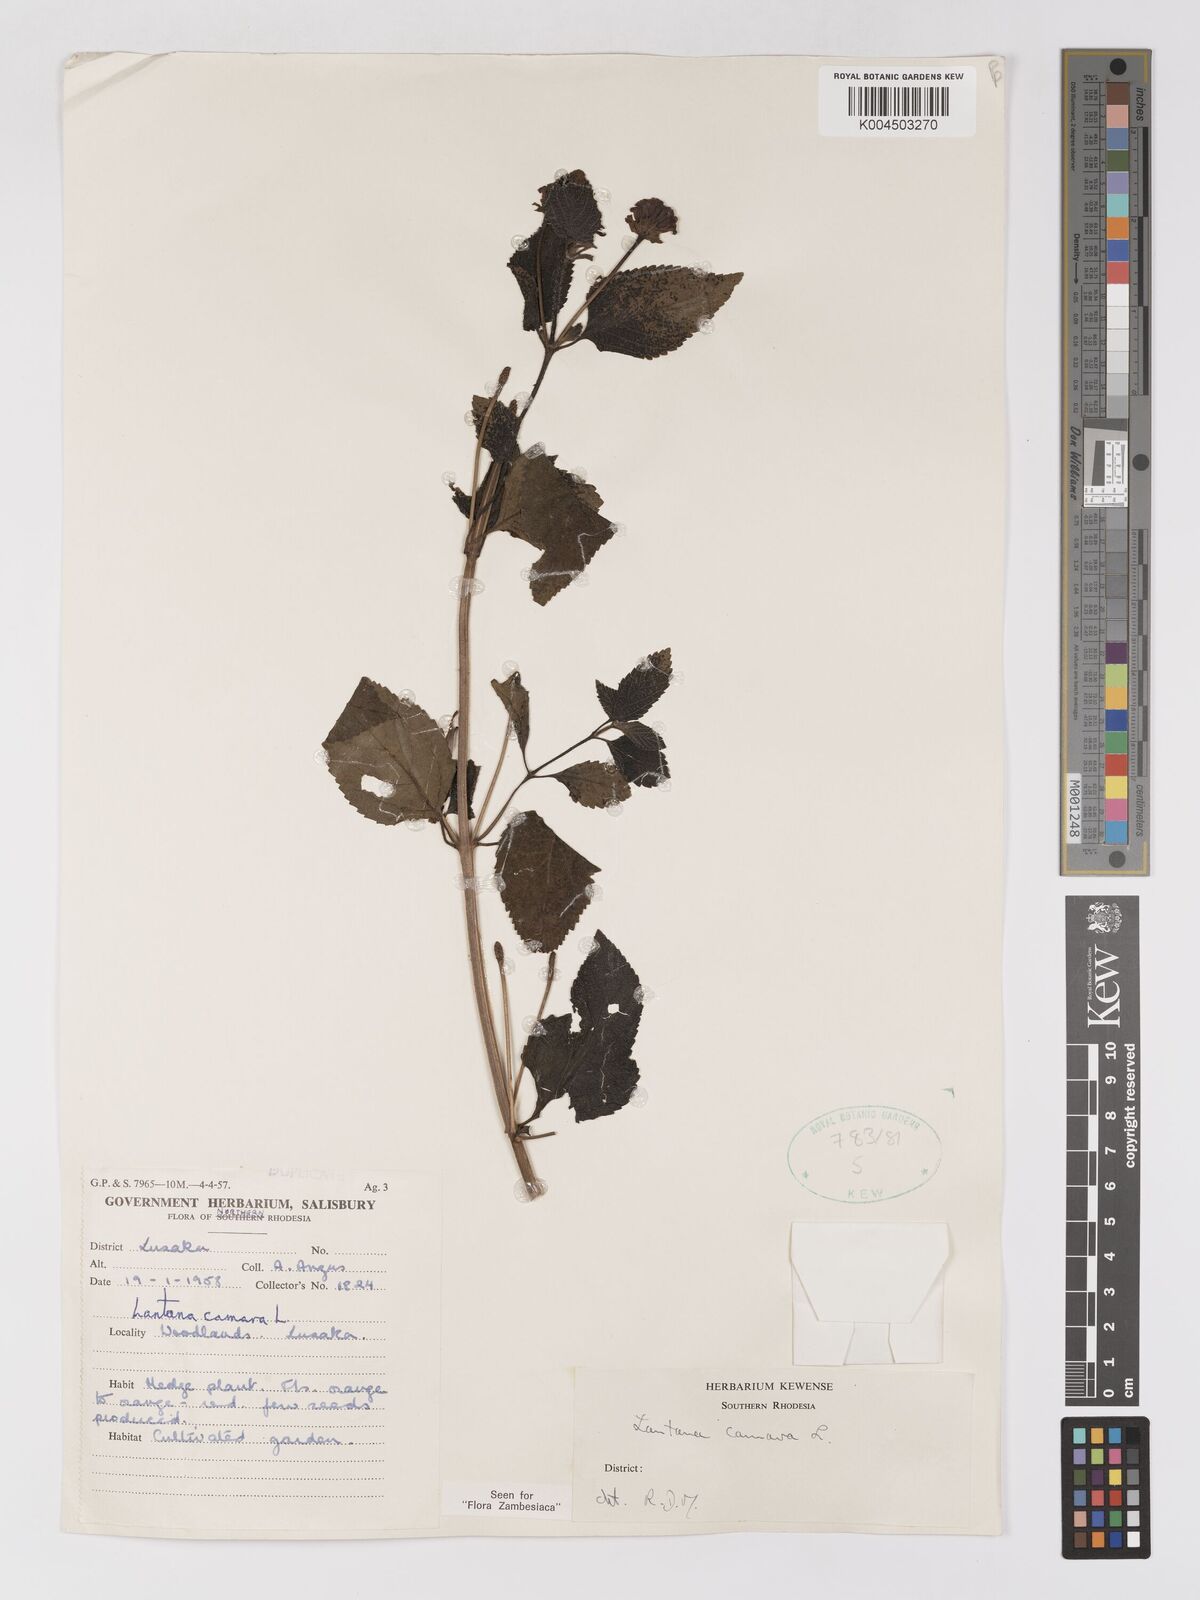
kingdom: Plantae
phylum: Tracheophyta
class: Magnoliopsida
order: Lamiales
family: Verbenaceae
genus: Lantana
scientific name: Lantana camara
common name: Lantana
